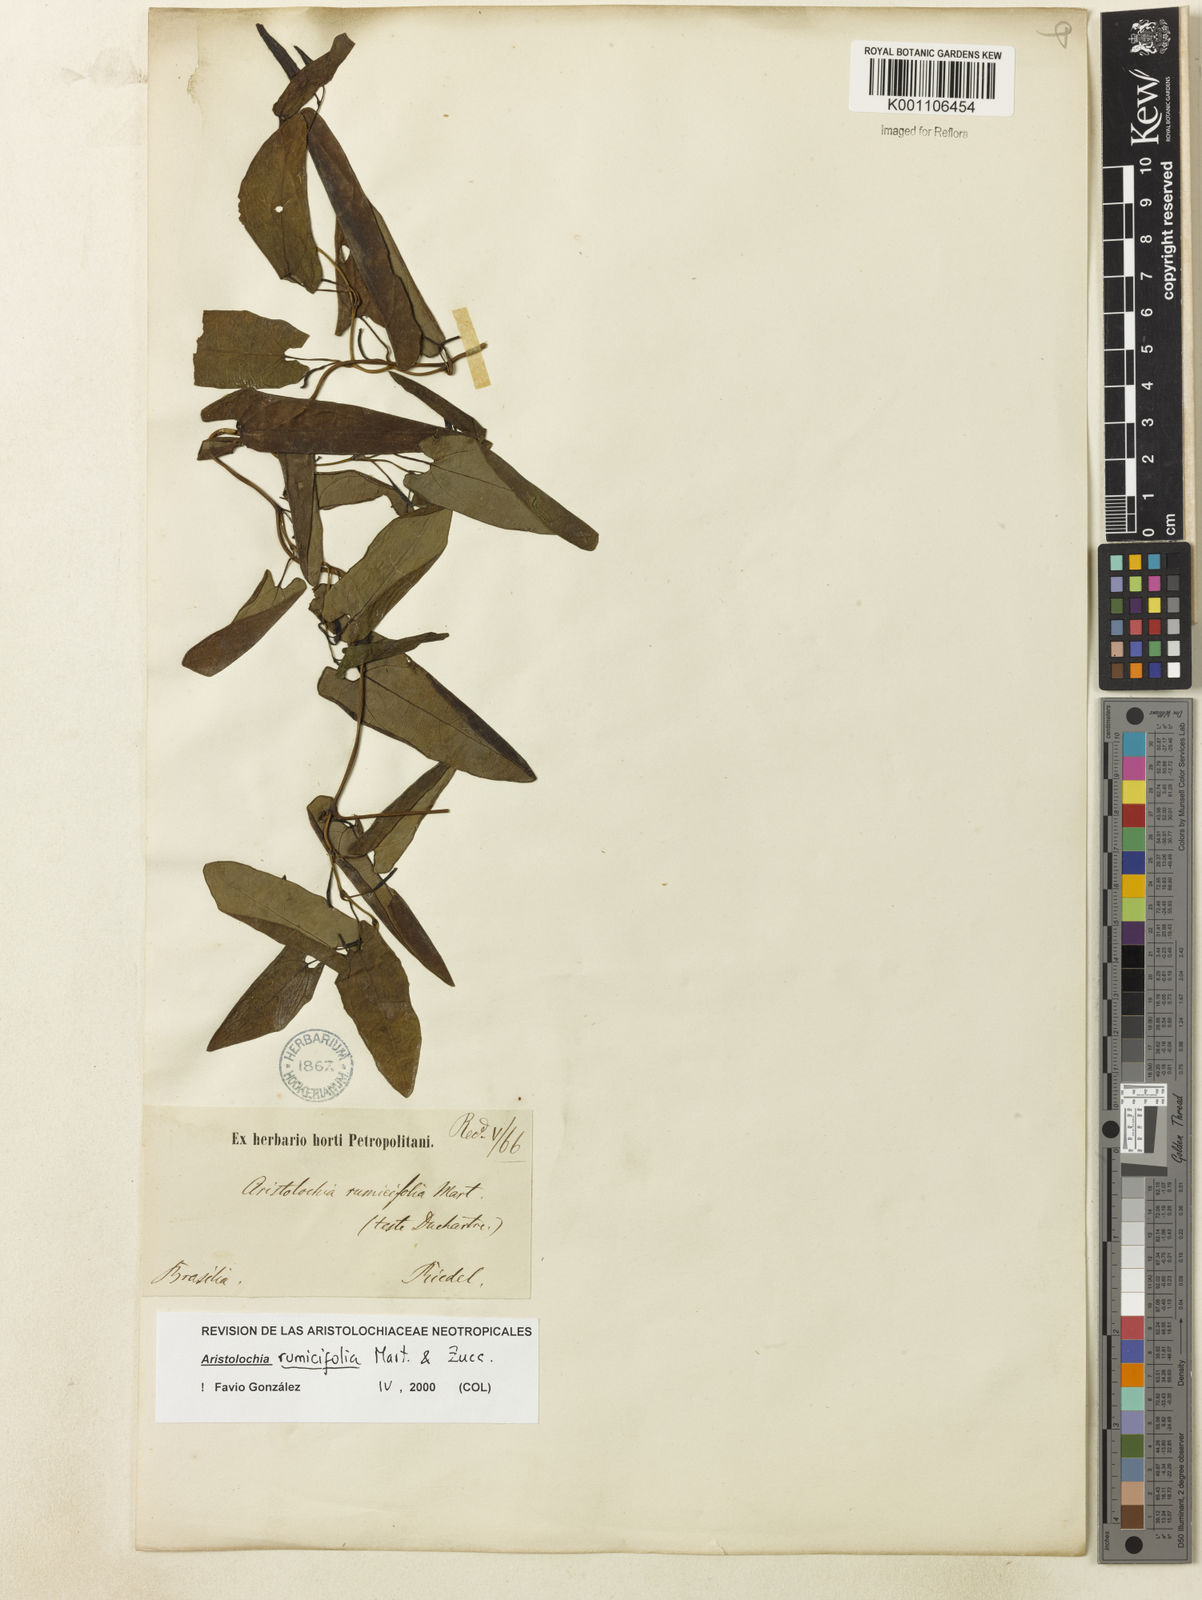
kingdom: Plantae
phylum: Tracheophyta
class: Magnoliopsida
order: Piperales
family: Aristolochiaceae
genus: Aristolochia
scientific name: Aristolochia rumicifolia
